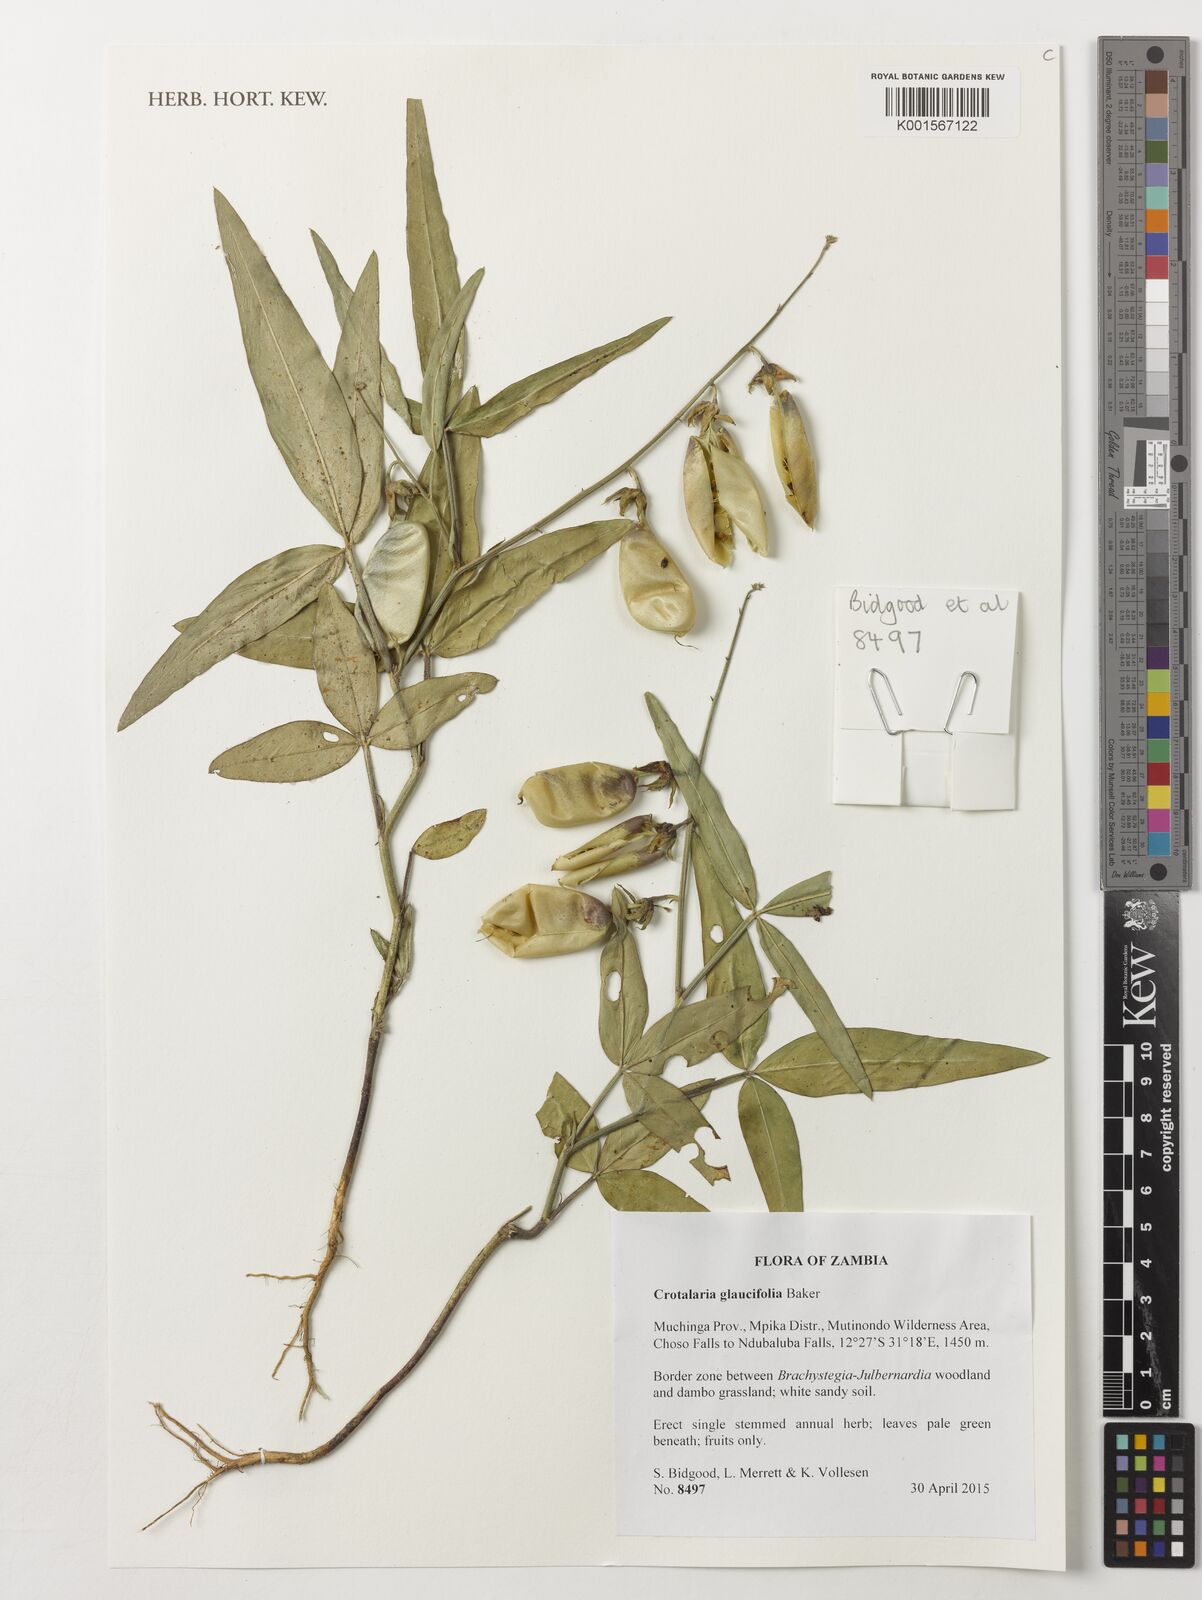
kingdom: Plantae
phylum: Tracheophyta
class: Magnoliopsida
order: Fabales
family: Fabaceae
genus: Crotalaria
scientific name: Crotalaria glaucifolia
